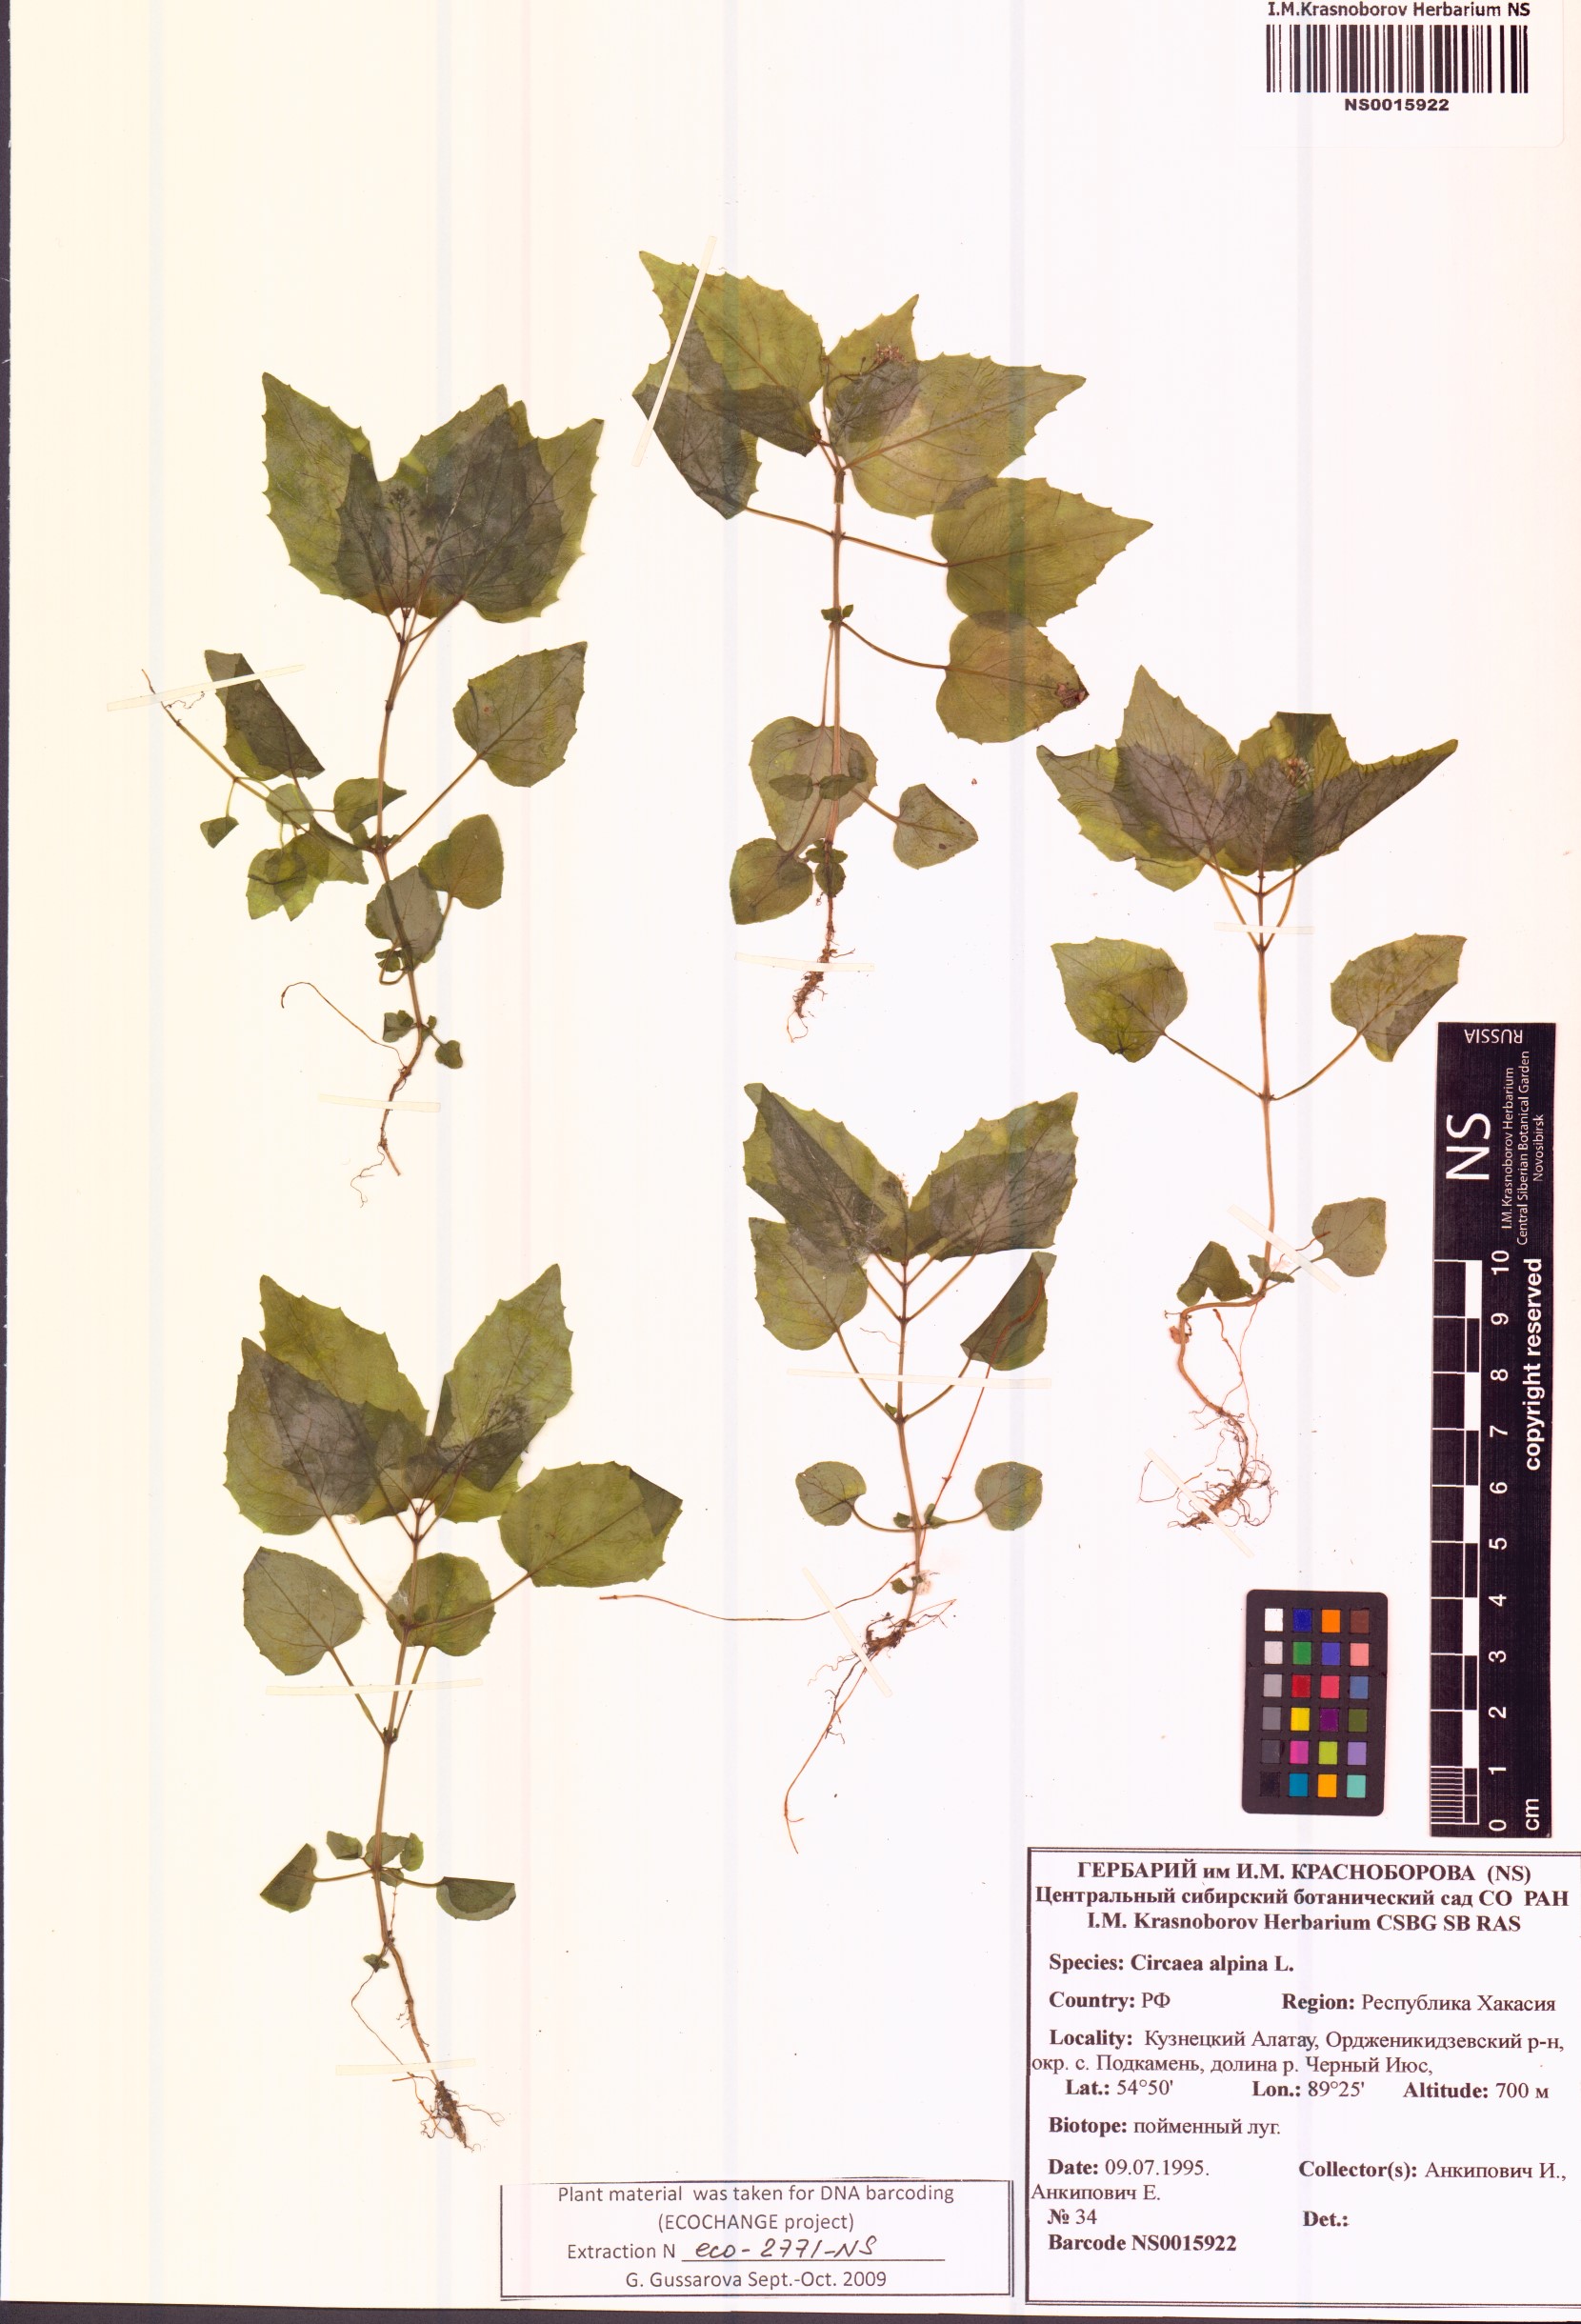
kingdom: Plantae
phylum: Tracheophyta
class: Magnoliopsida
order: Myrtales
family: Onagraceae
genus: Circaea
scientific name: Circaea alpina
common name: Alpine enchanter's-nightshade
